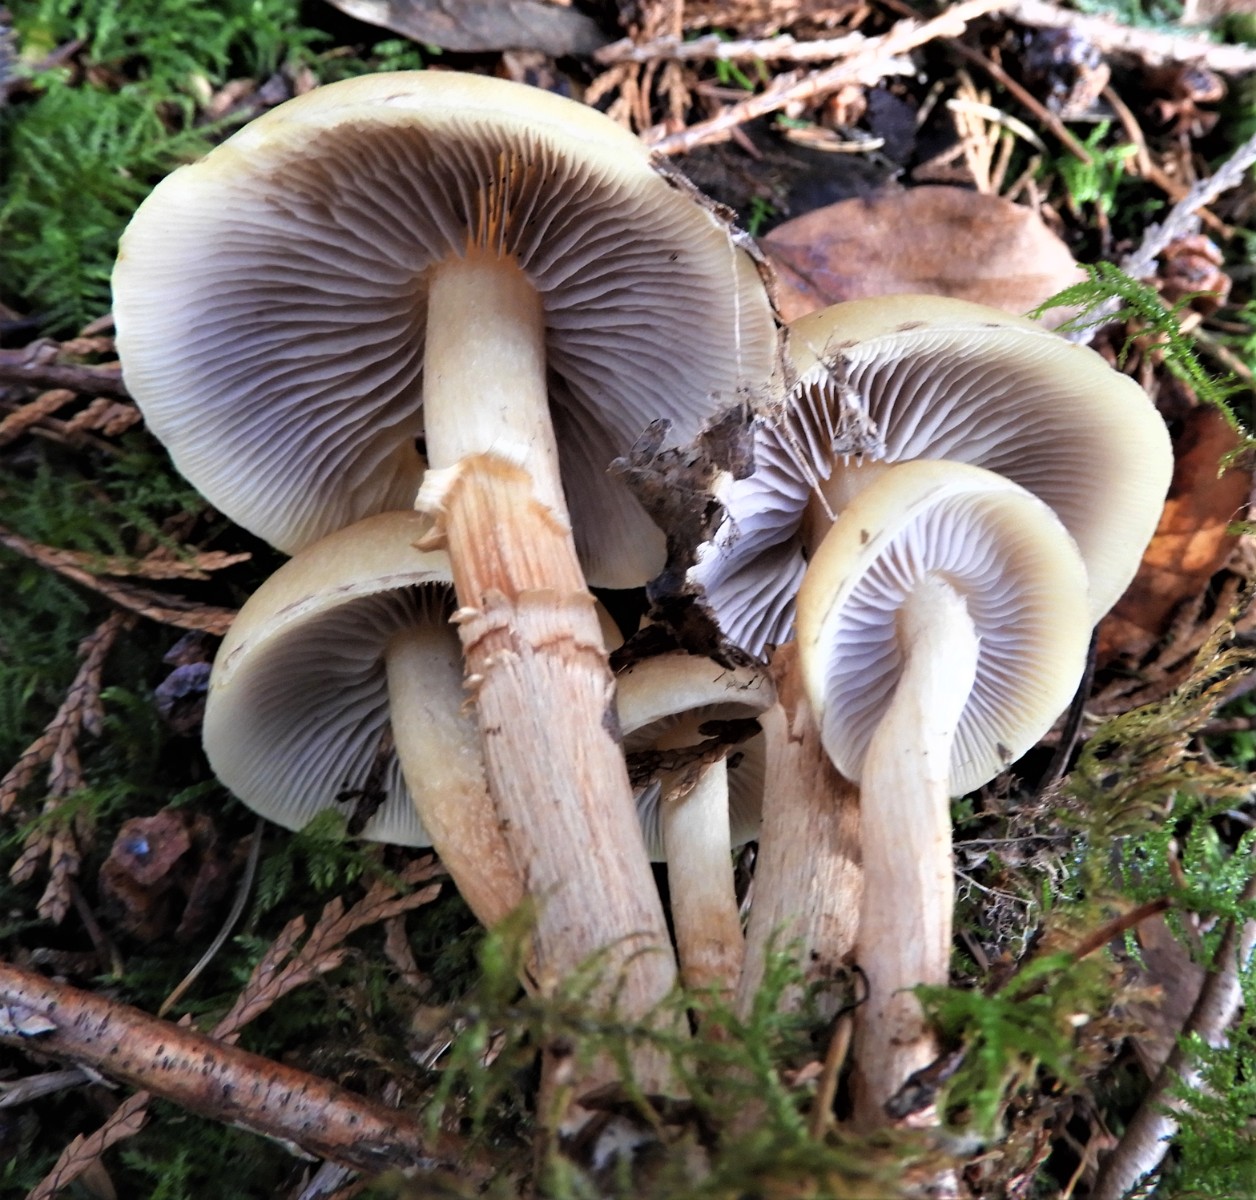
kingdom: Fungi
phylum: Basidiomycota
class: Agaricomycetes
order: Agaricales
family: Strophariaceae
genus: Hypholoma
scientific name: Hypholoma capnoides
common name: gran-svovlhat
